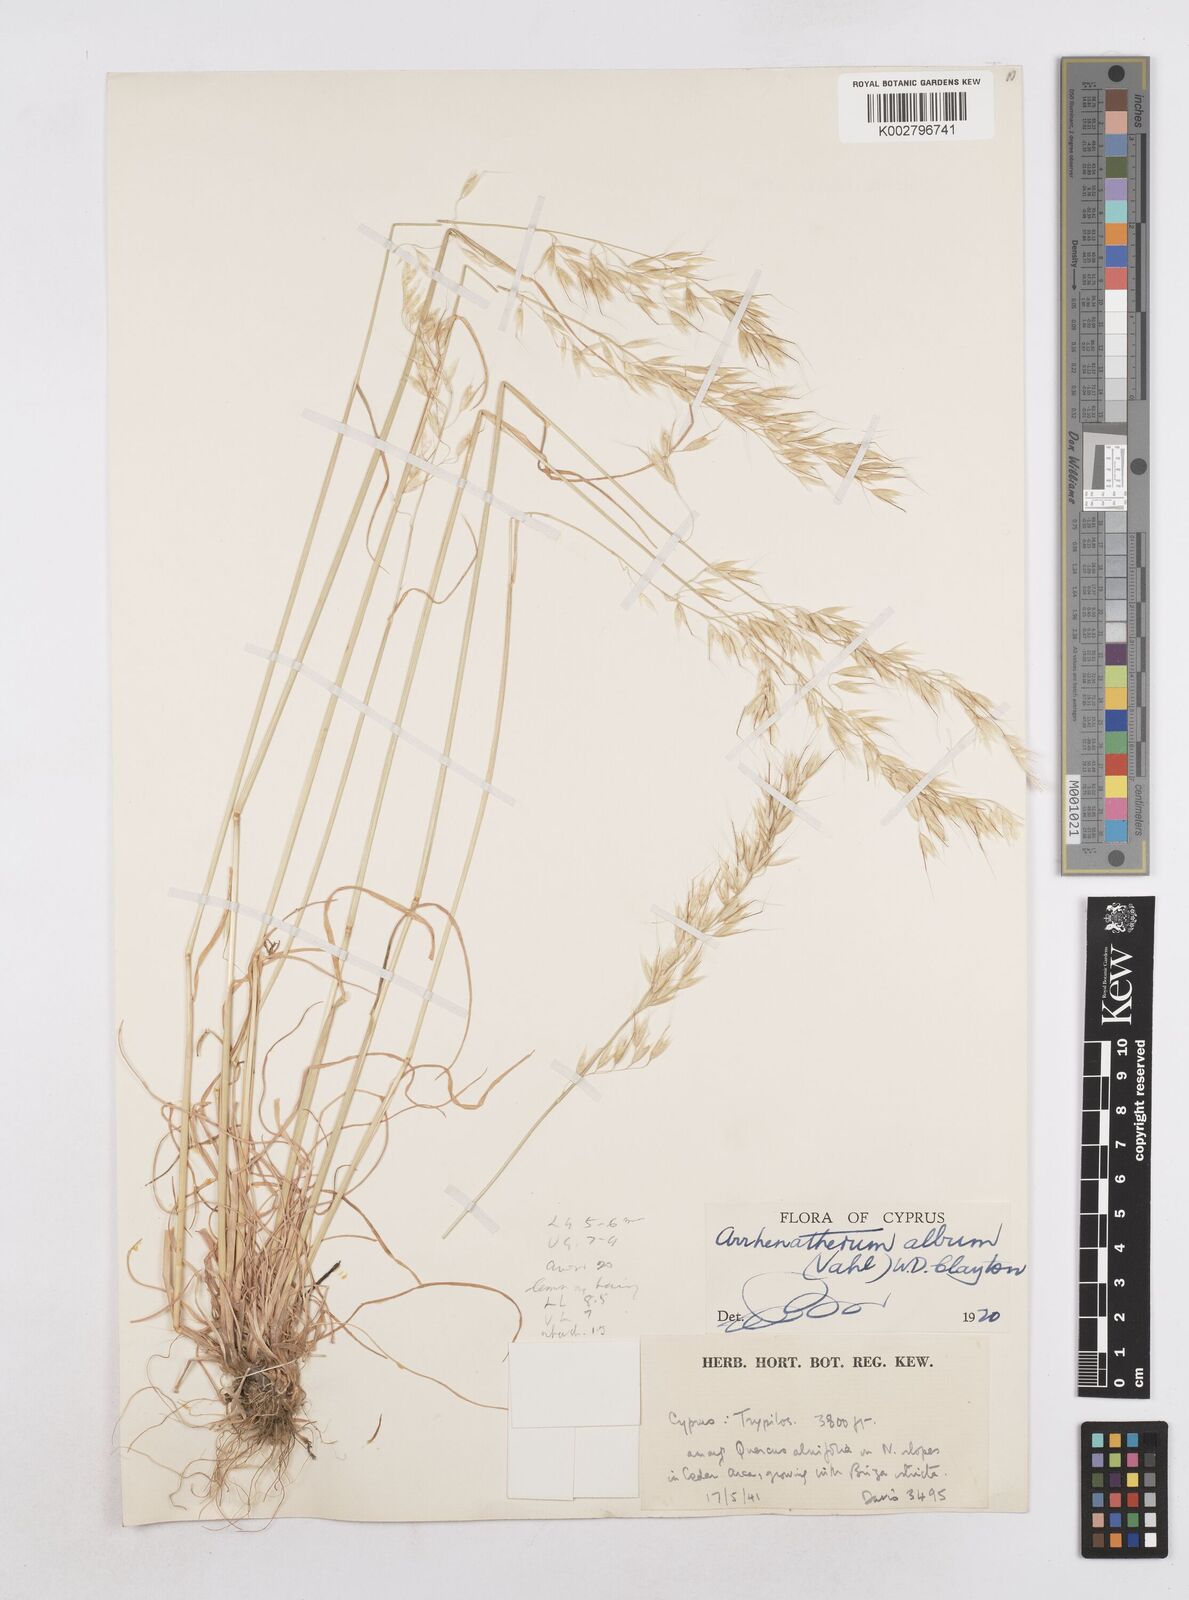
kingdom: Plantae
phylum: Tracheophyta
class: Liliopsida
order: Poales
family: Poaceae
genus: Arrhenatherum
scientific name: Arrhenatherum album
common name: Tall oat grass
